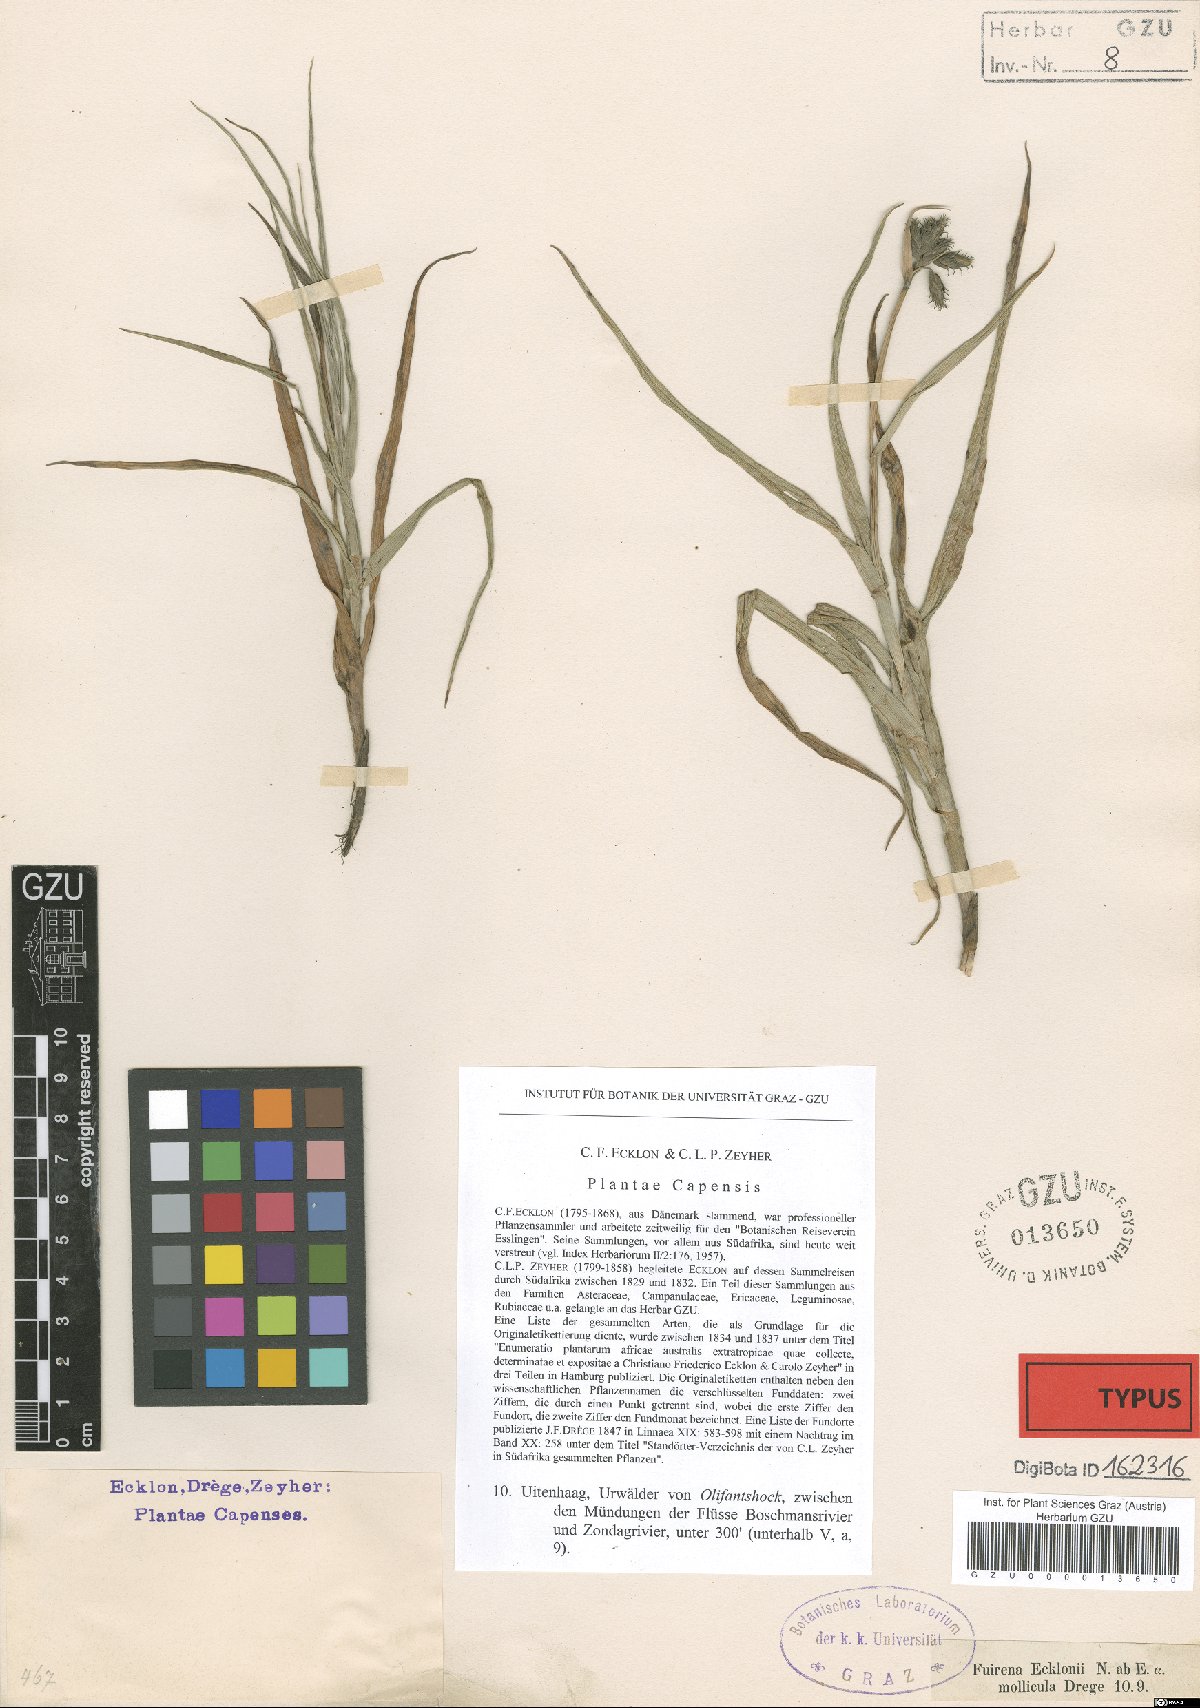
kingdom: Plantae
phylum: Tracheophyta
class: Liliopsida
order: Poales
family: Cyperaceae
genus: Fuirena
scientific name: Fuirena ecklonii
